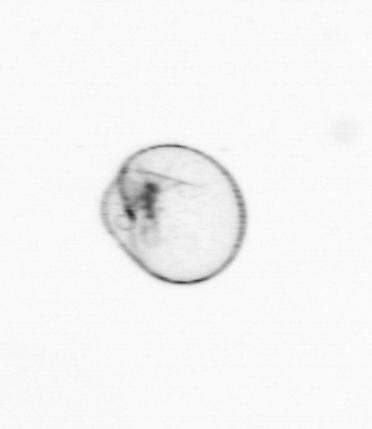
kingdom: Chromista
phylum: Myzozoa
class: Dinophyceae
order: Noctilucales
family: Noctilucaceae
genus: Noctiluca
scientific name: Noctiluca scintillans
